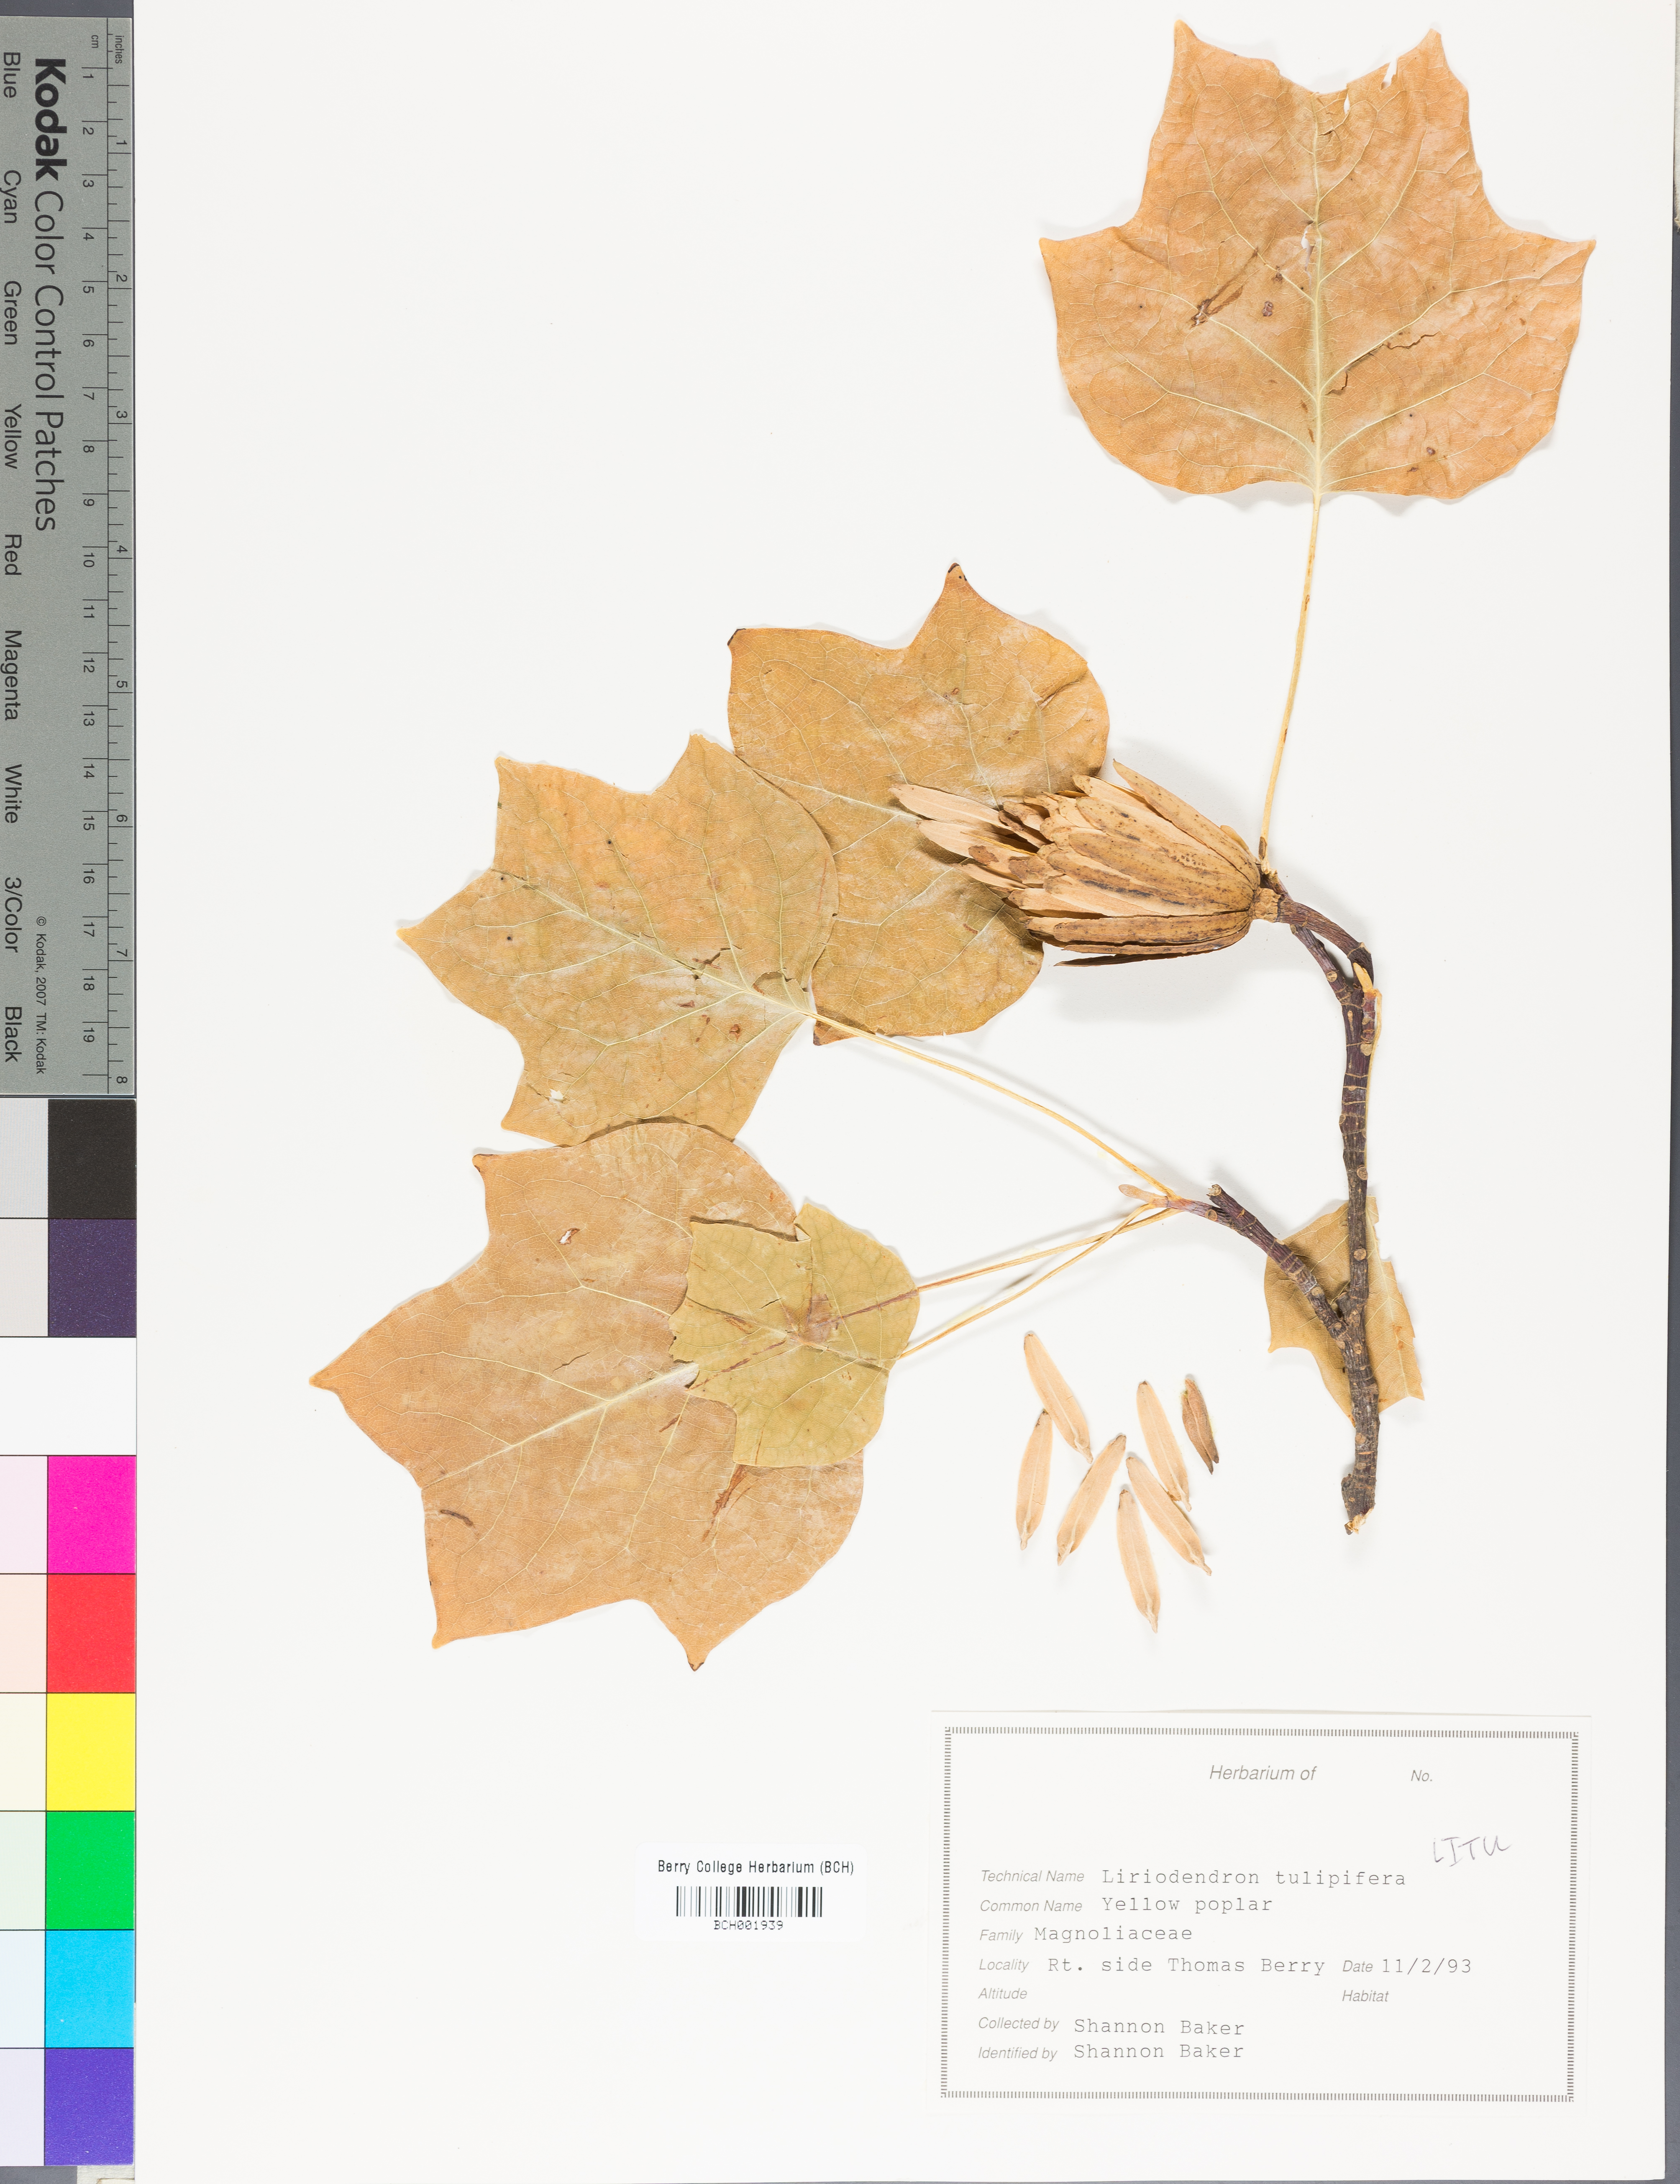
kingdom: Plantae
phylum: Tracheophyta
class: Magnoliopsida
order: Magnoliales
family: Magnoliaceae
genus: Liriodendron
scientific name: Liriodendron tulipifera
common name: Tulip tree
